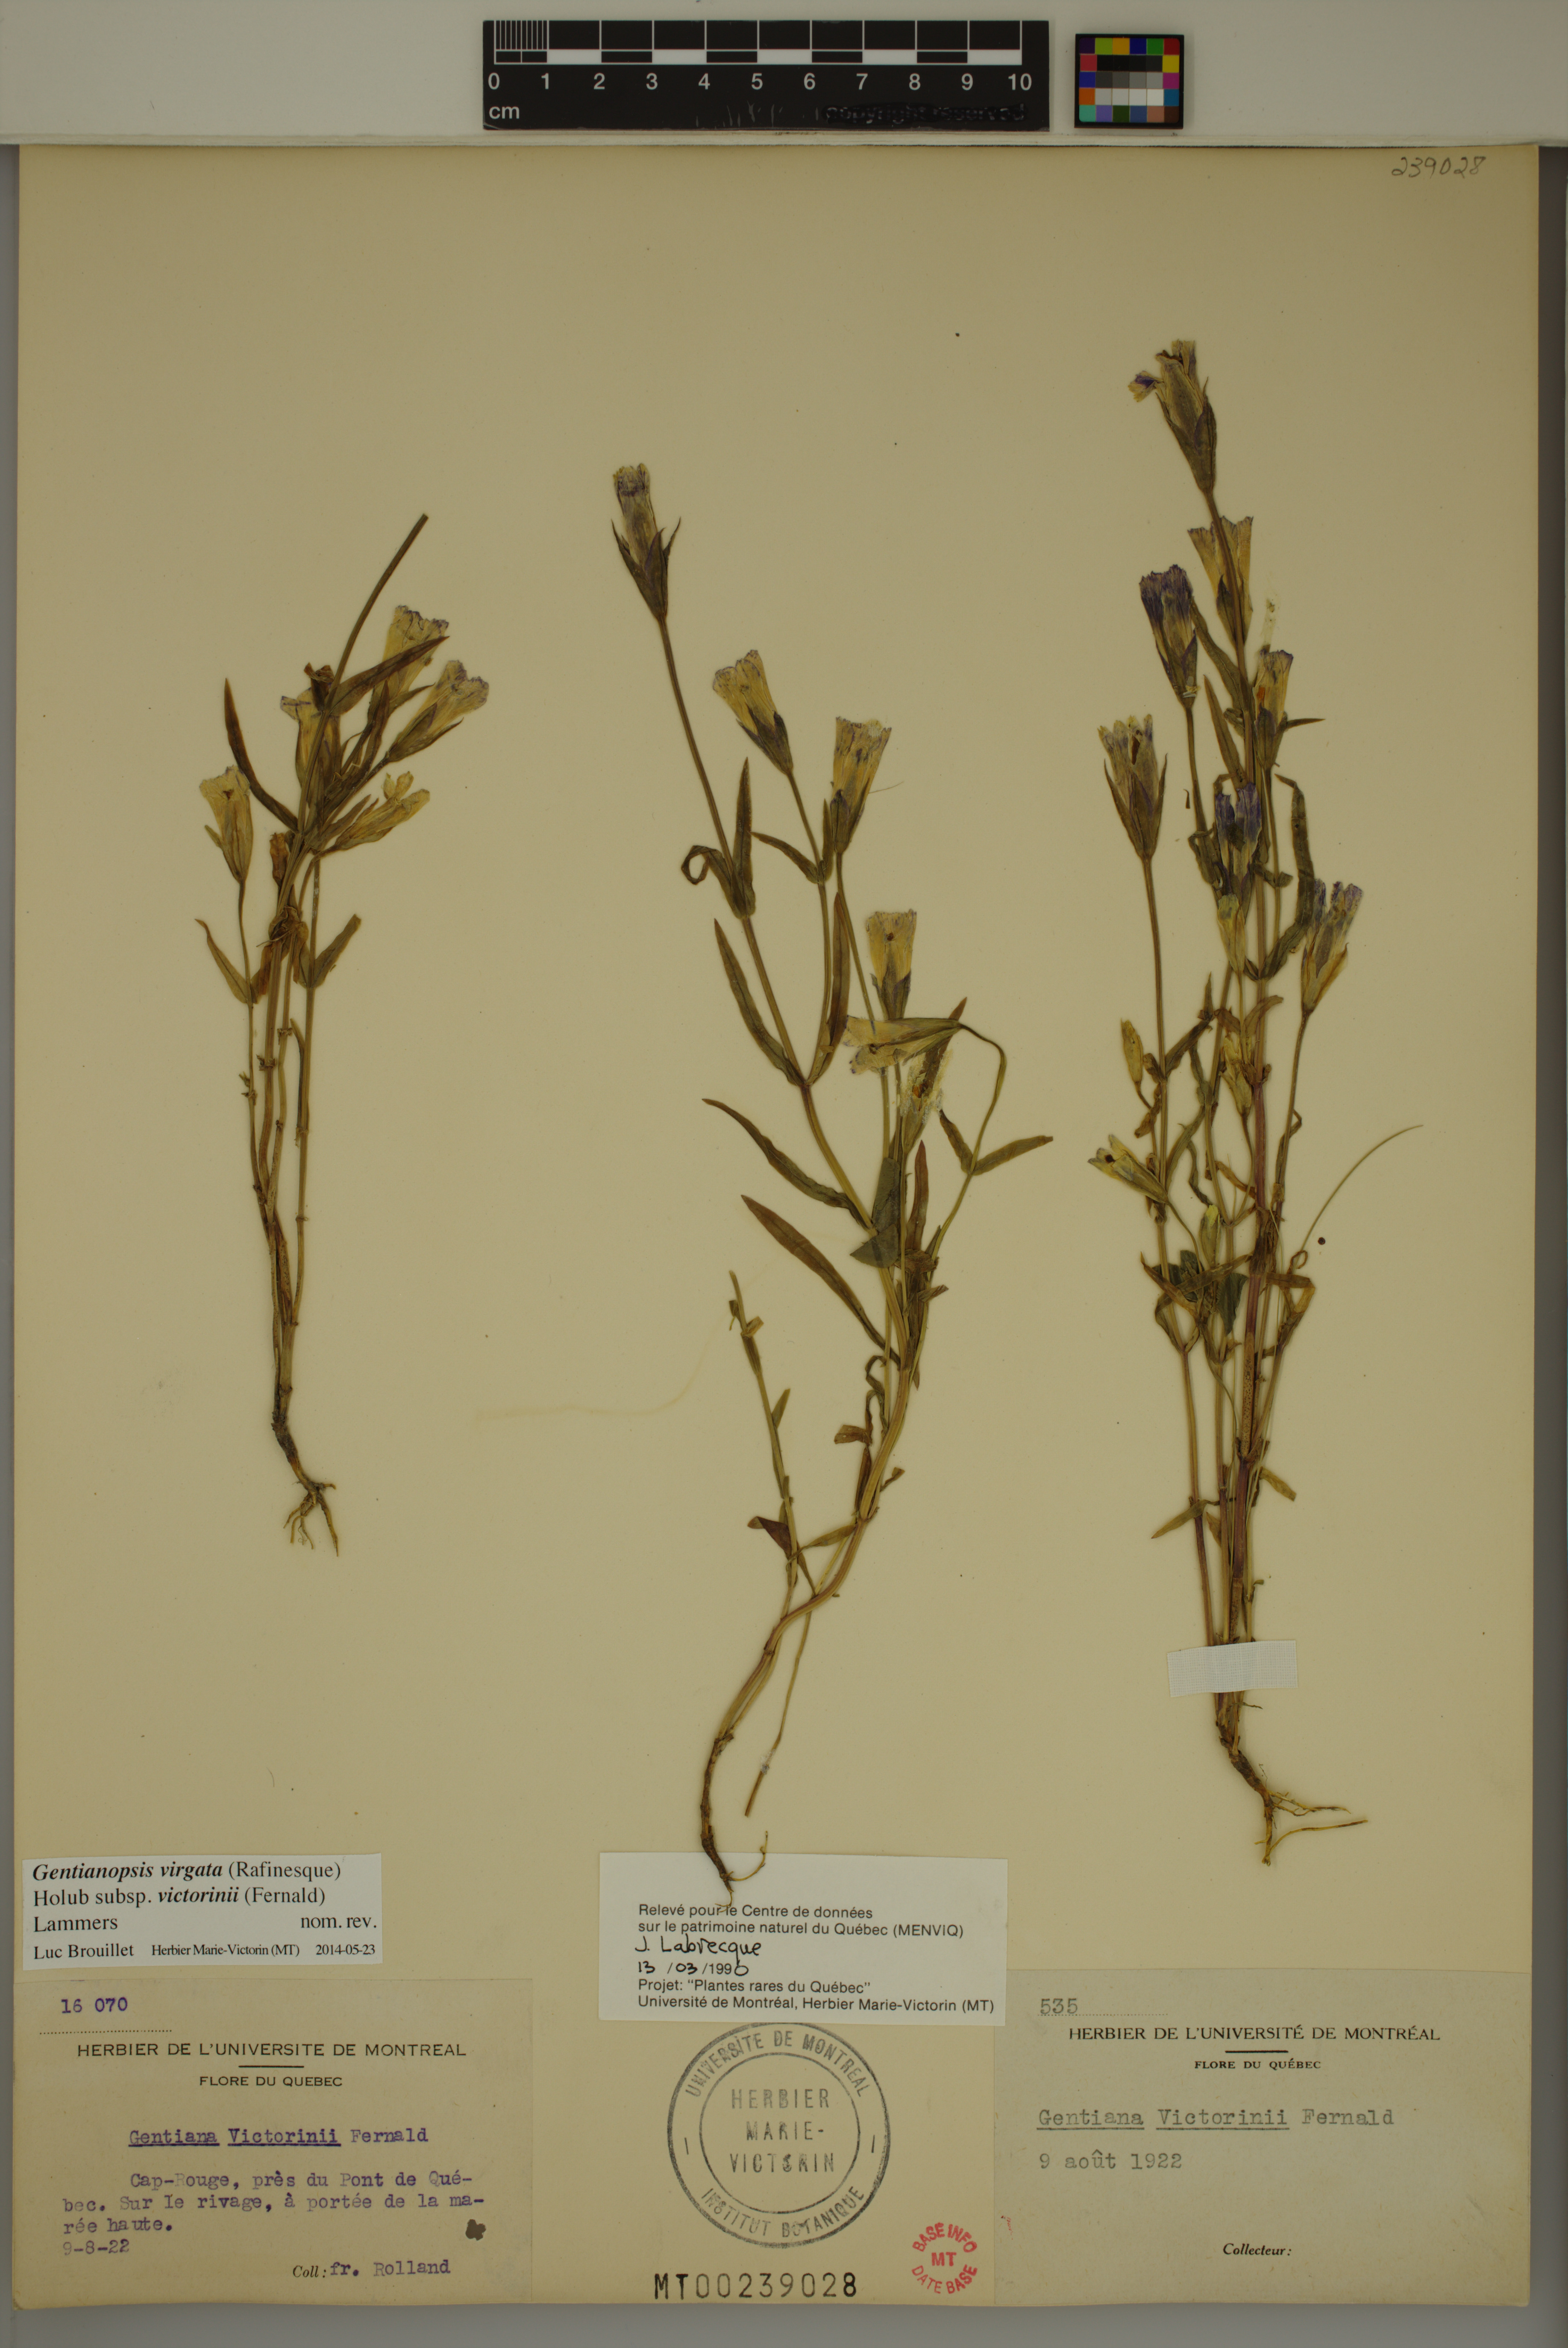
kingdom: Plantae
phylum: Tracheophyta
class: Magnoliopsida
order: Gentianales
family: Gentianaceae
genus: Gentianopsis
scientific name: Gentianopsis victorinii
